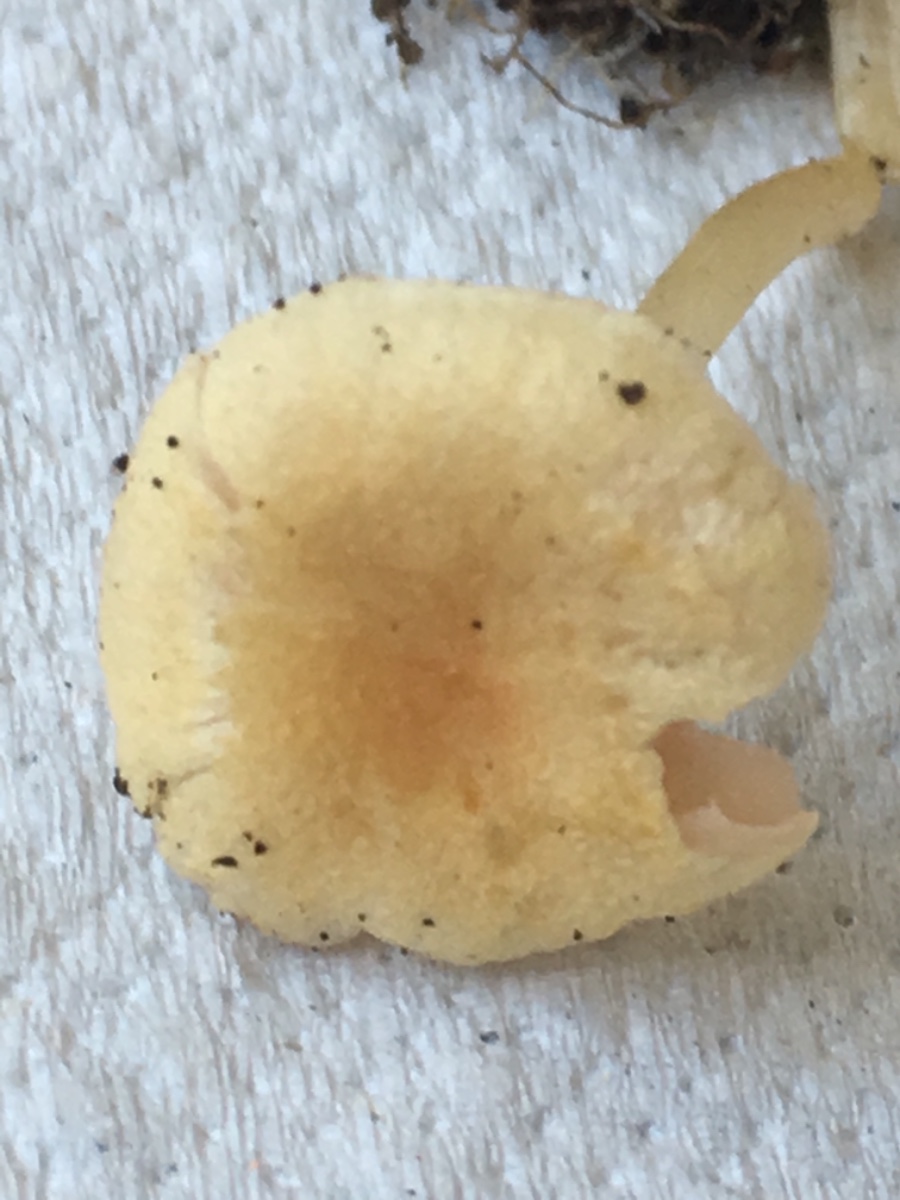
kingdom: Fungi
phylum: Basidiomycota
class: Agaricomycetes
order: Agaricales
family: Entolomataceae
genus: Entoloma
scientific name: Entoloma sericellum
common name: silkehvid rødblad
